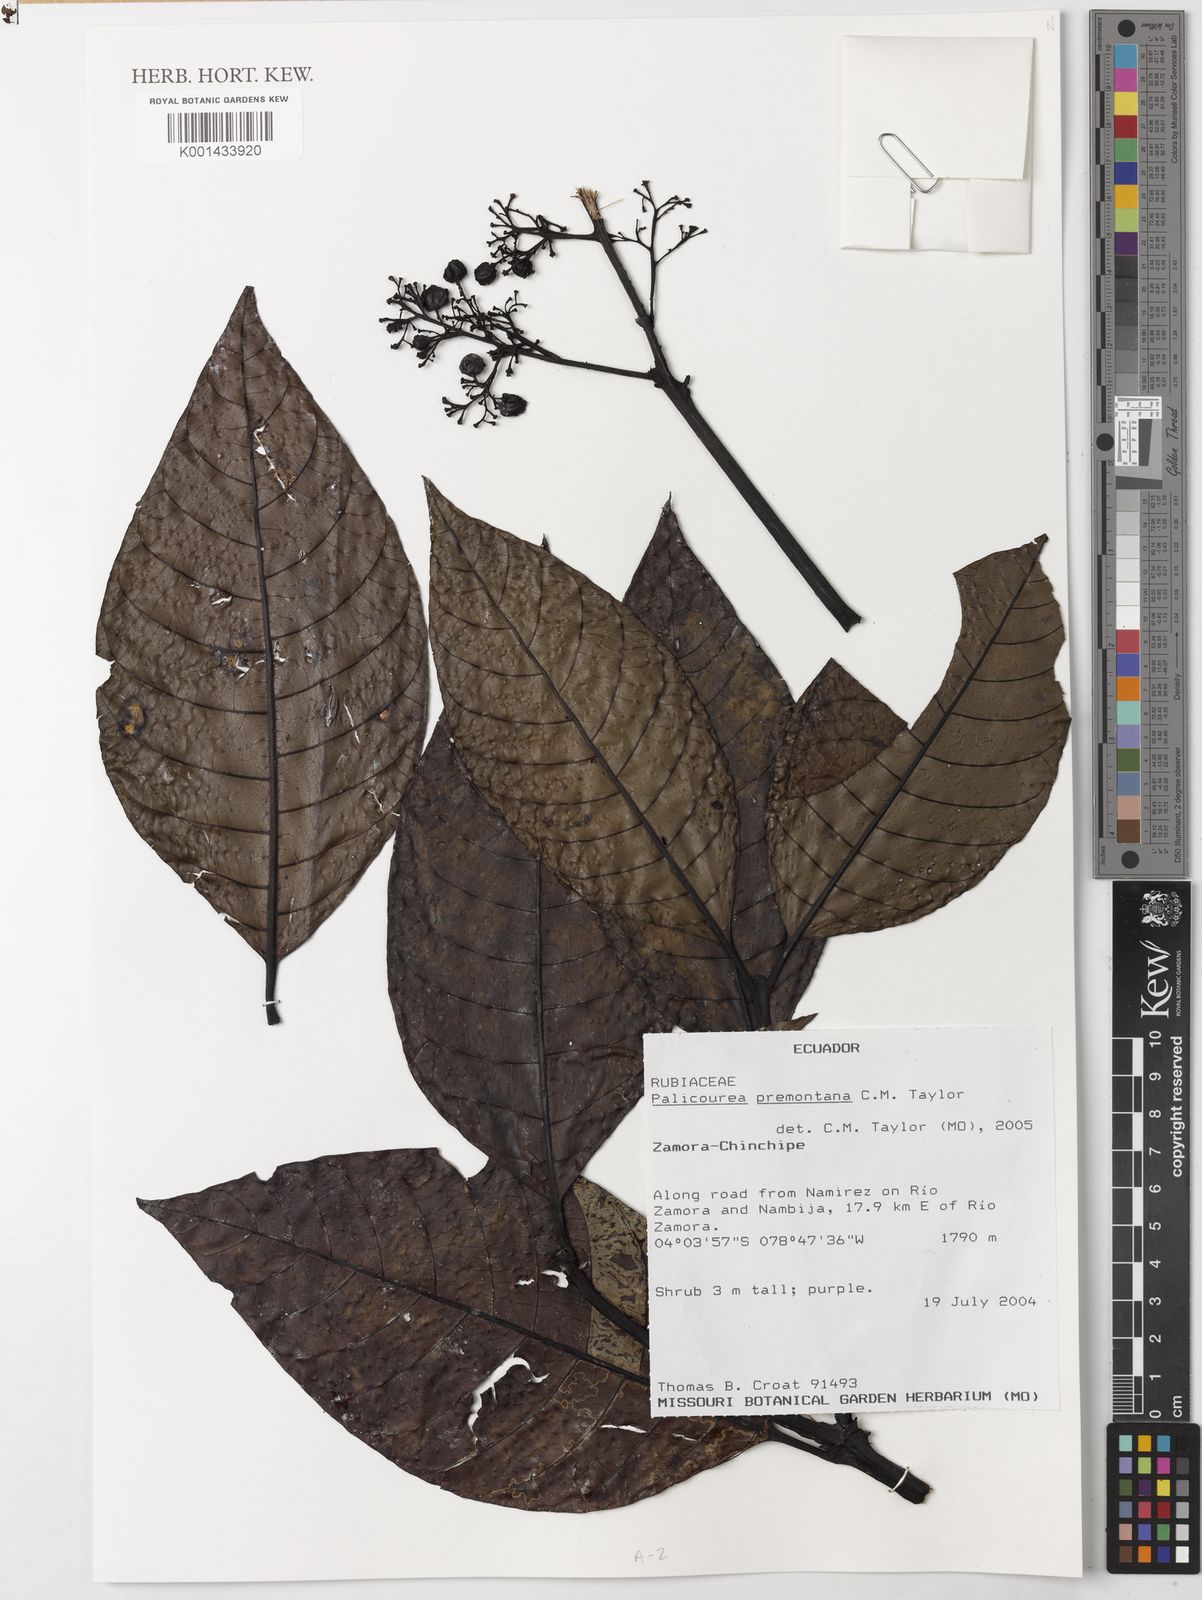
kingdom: Plantae
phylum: Tracheophyta
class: Magnoliopsida
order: Gentianales
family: Rubiaceae
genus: Palicourea
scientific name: Palicourea premontana
